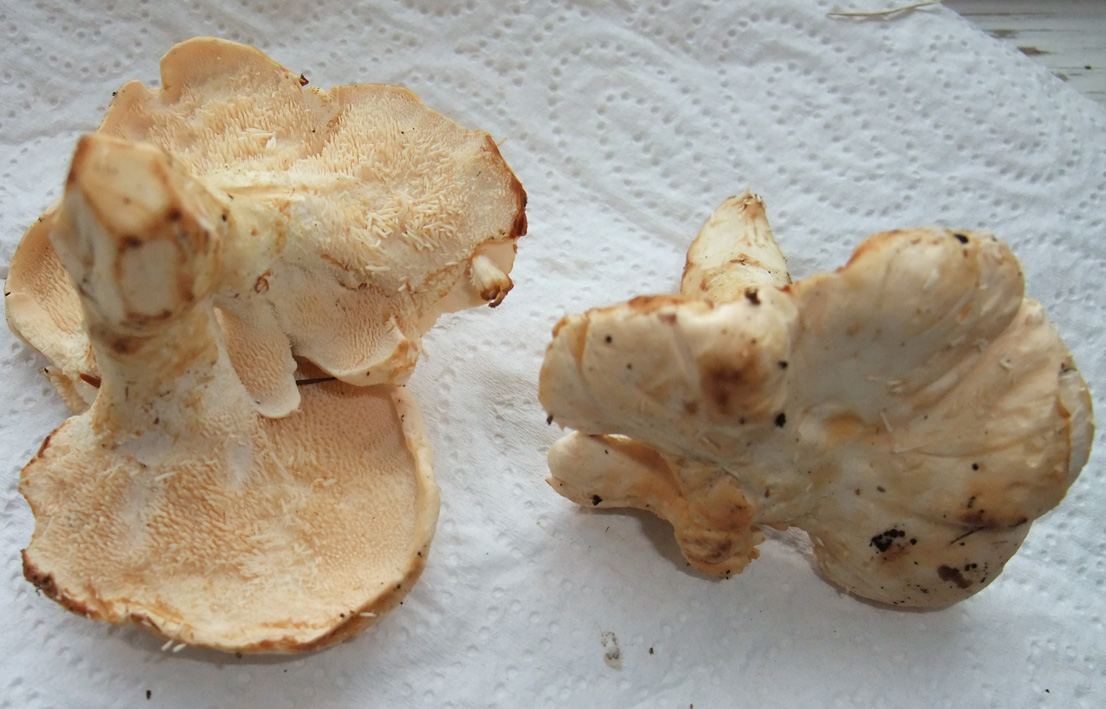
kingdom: Fungi
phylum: Basidiomycota
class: Agaricomycetes
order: Cantharellales
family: Hydnaceae
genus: Hydnum
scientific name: Hydnum repandum
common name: almindelig pigsvamp
